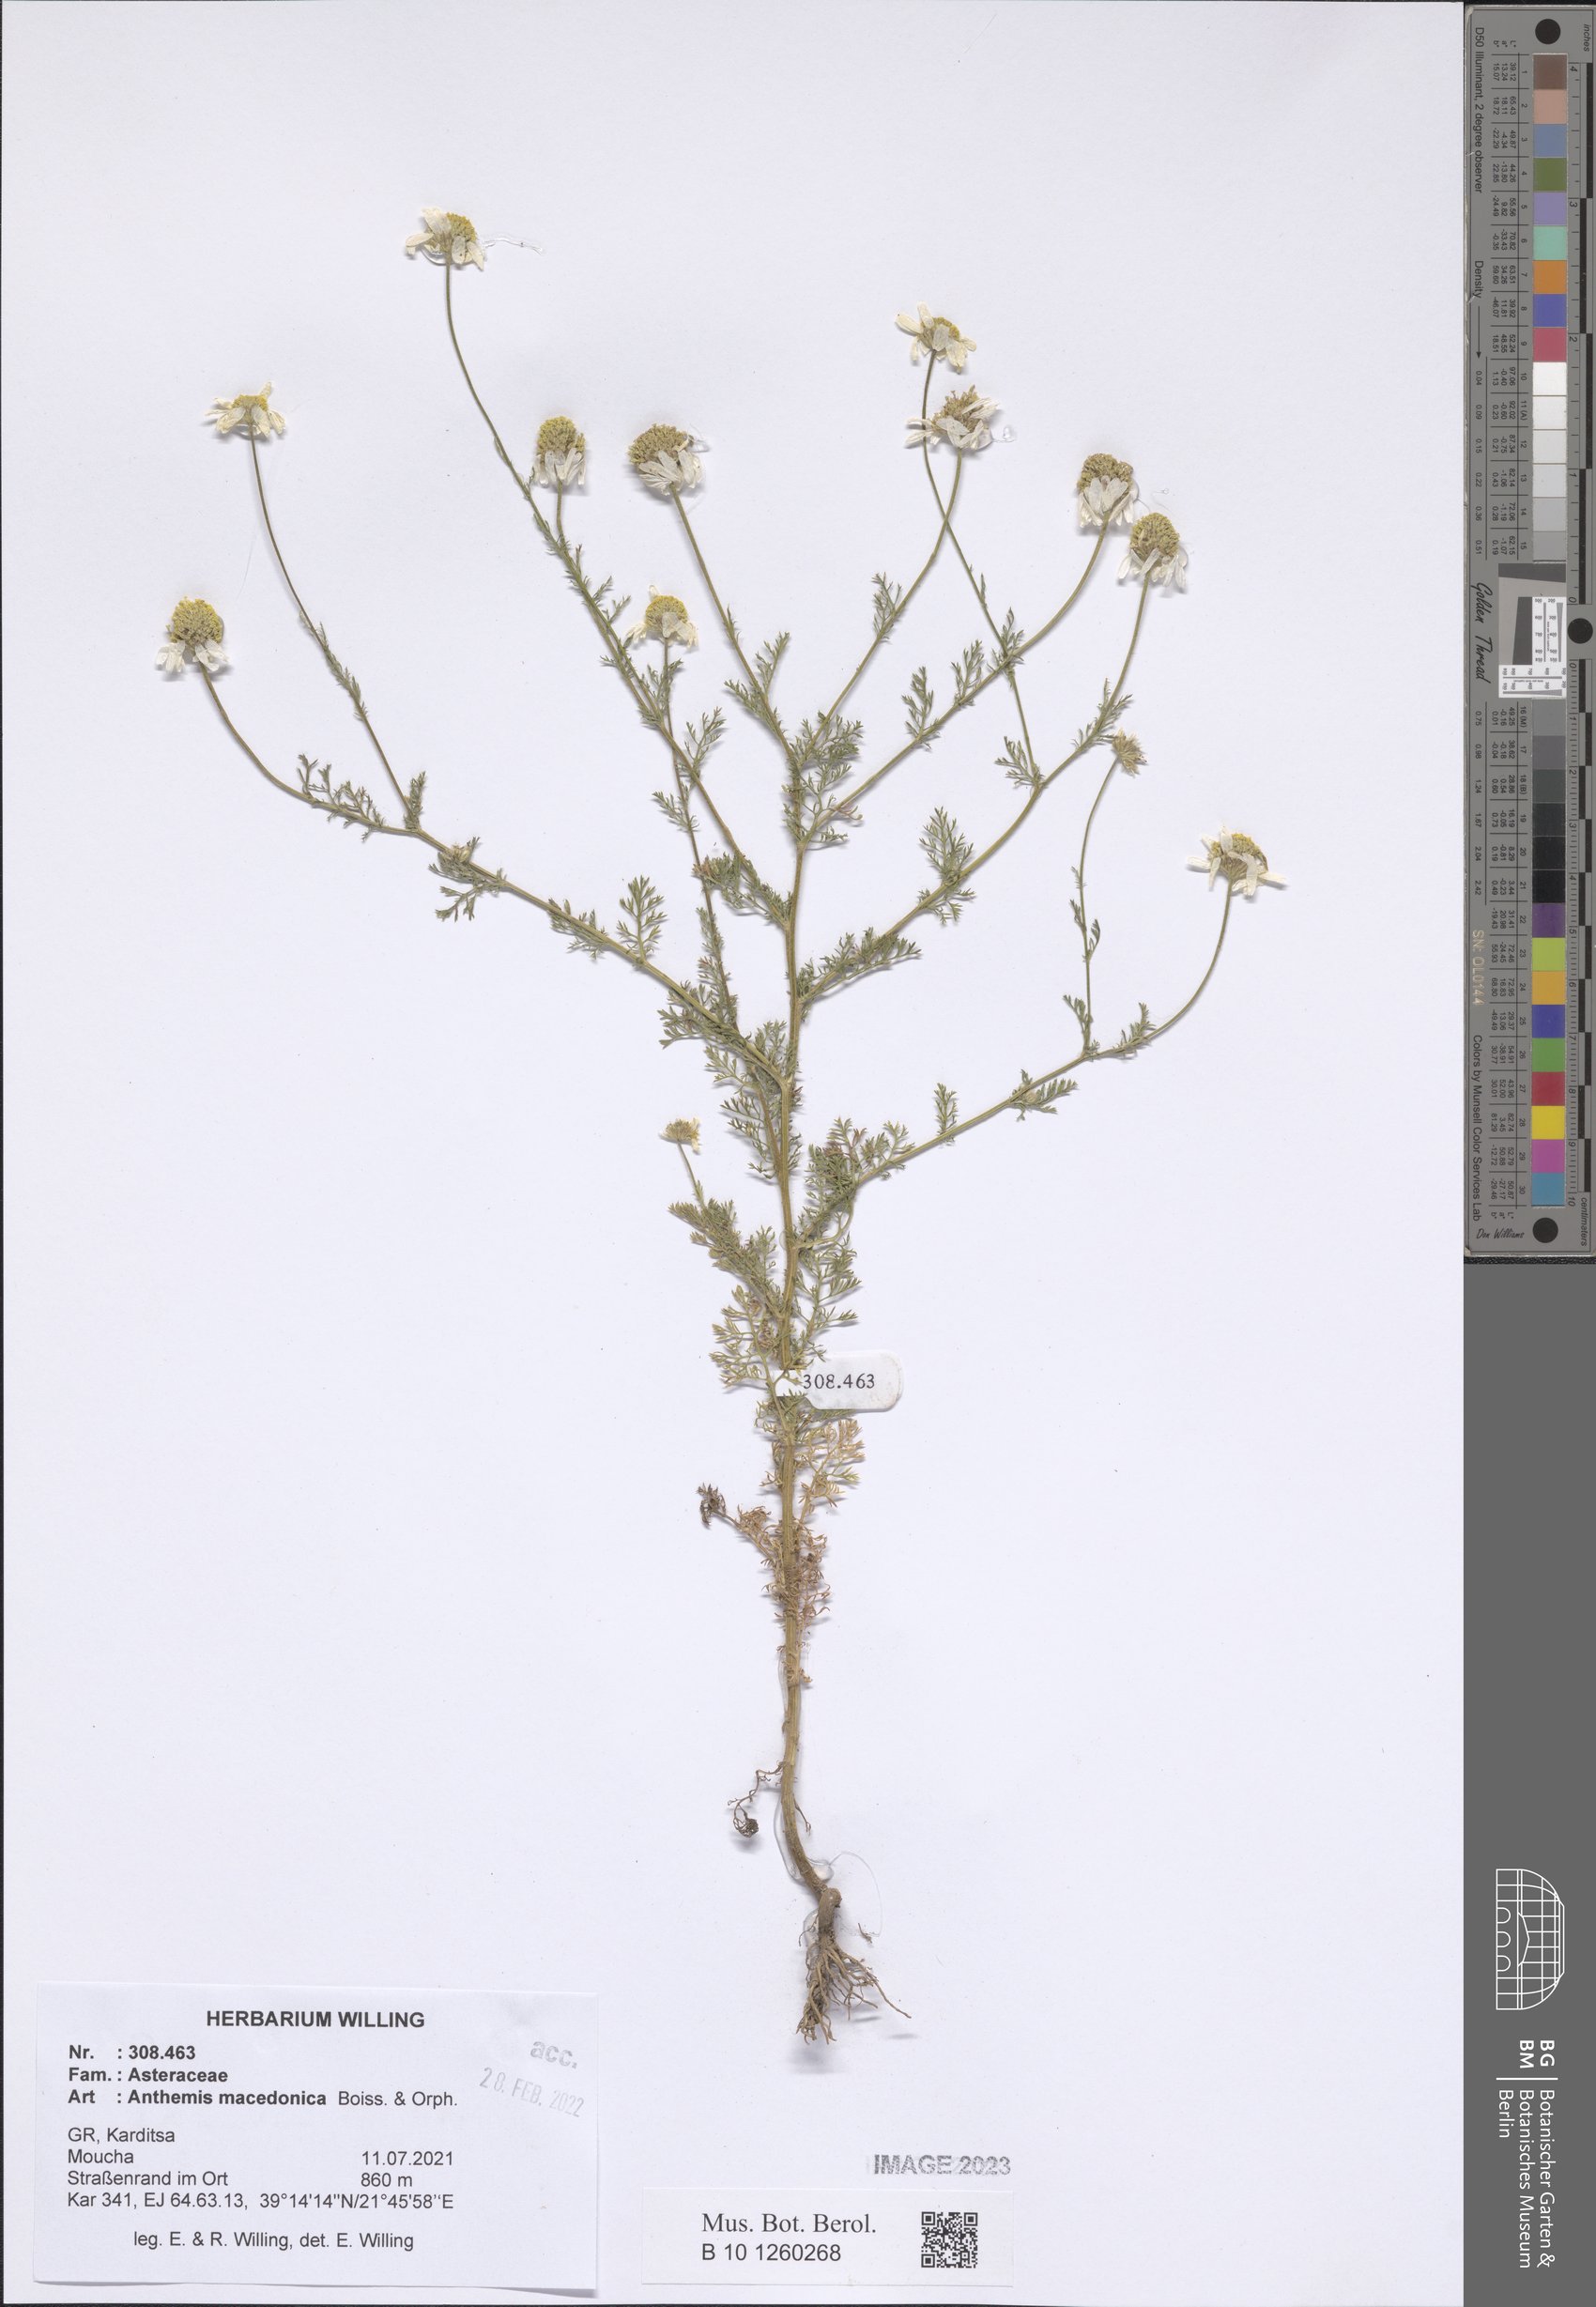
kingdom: Plantae
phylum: Tracheophyta
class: Magnoliopsida
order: Asterales
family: Asteraceae
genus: Anthemis
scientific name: Anthemis macedonica
